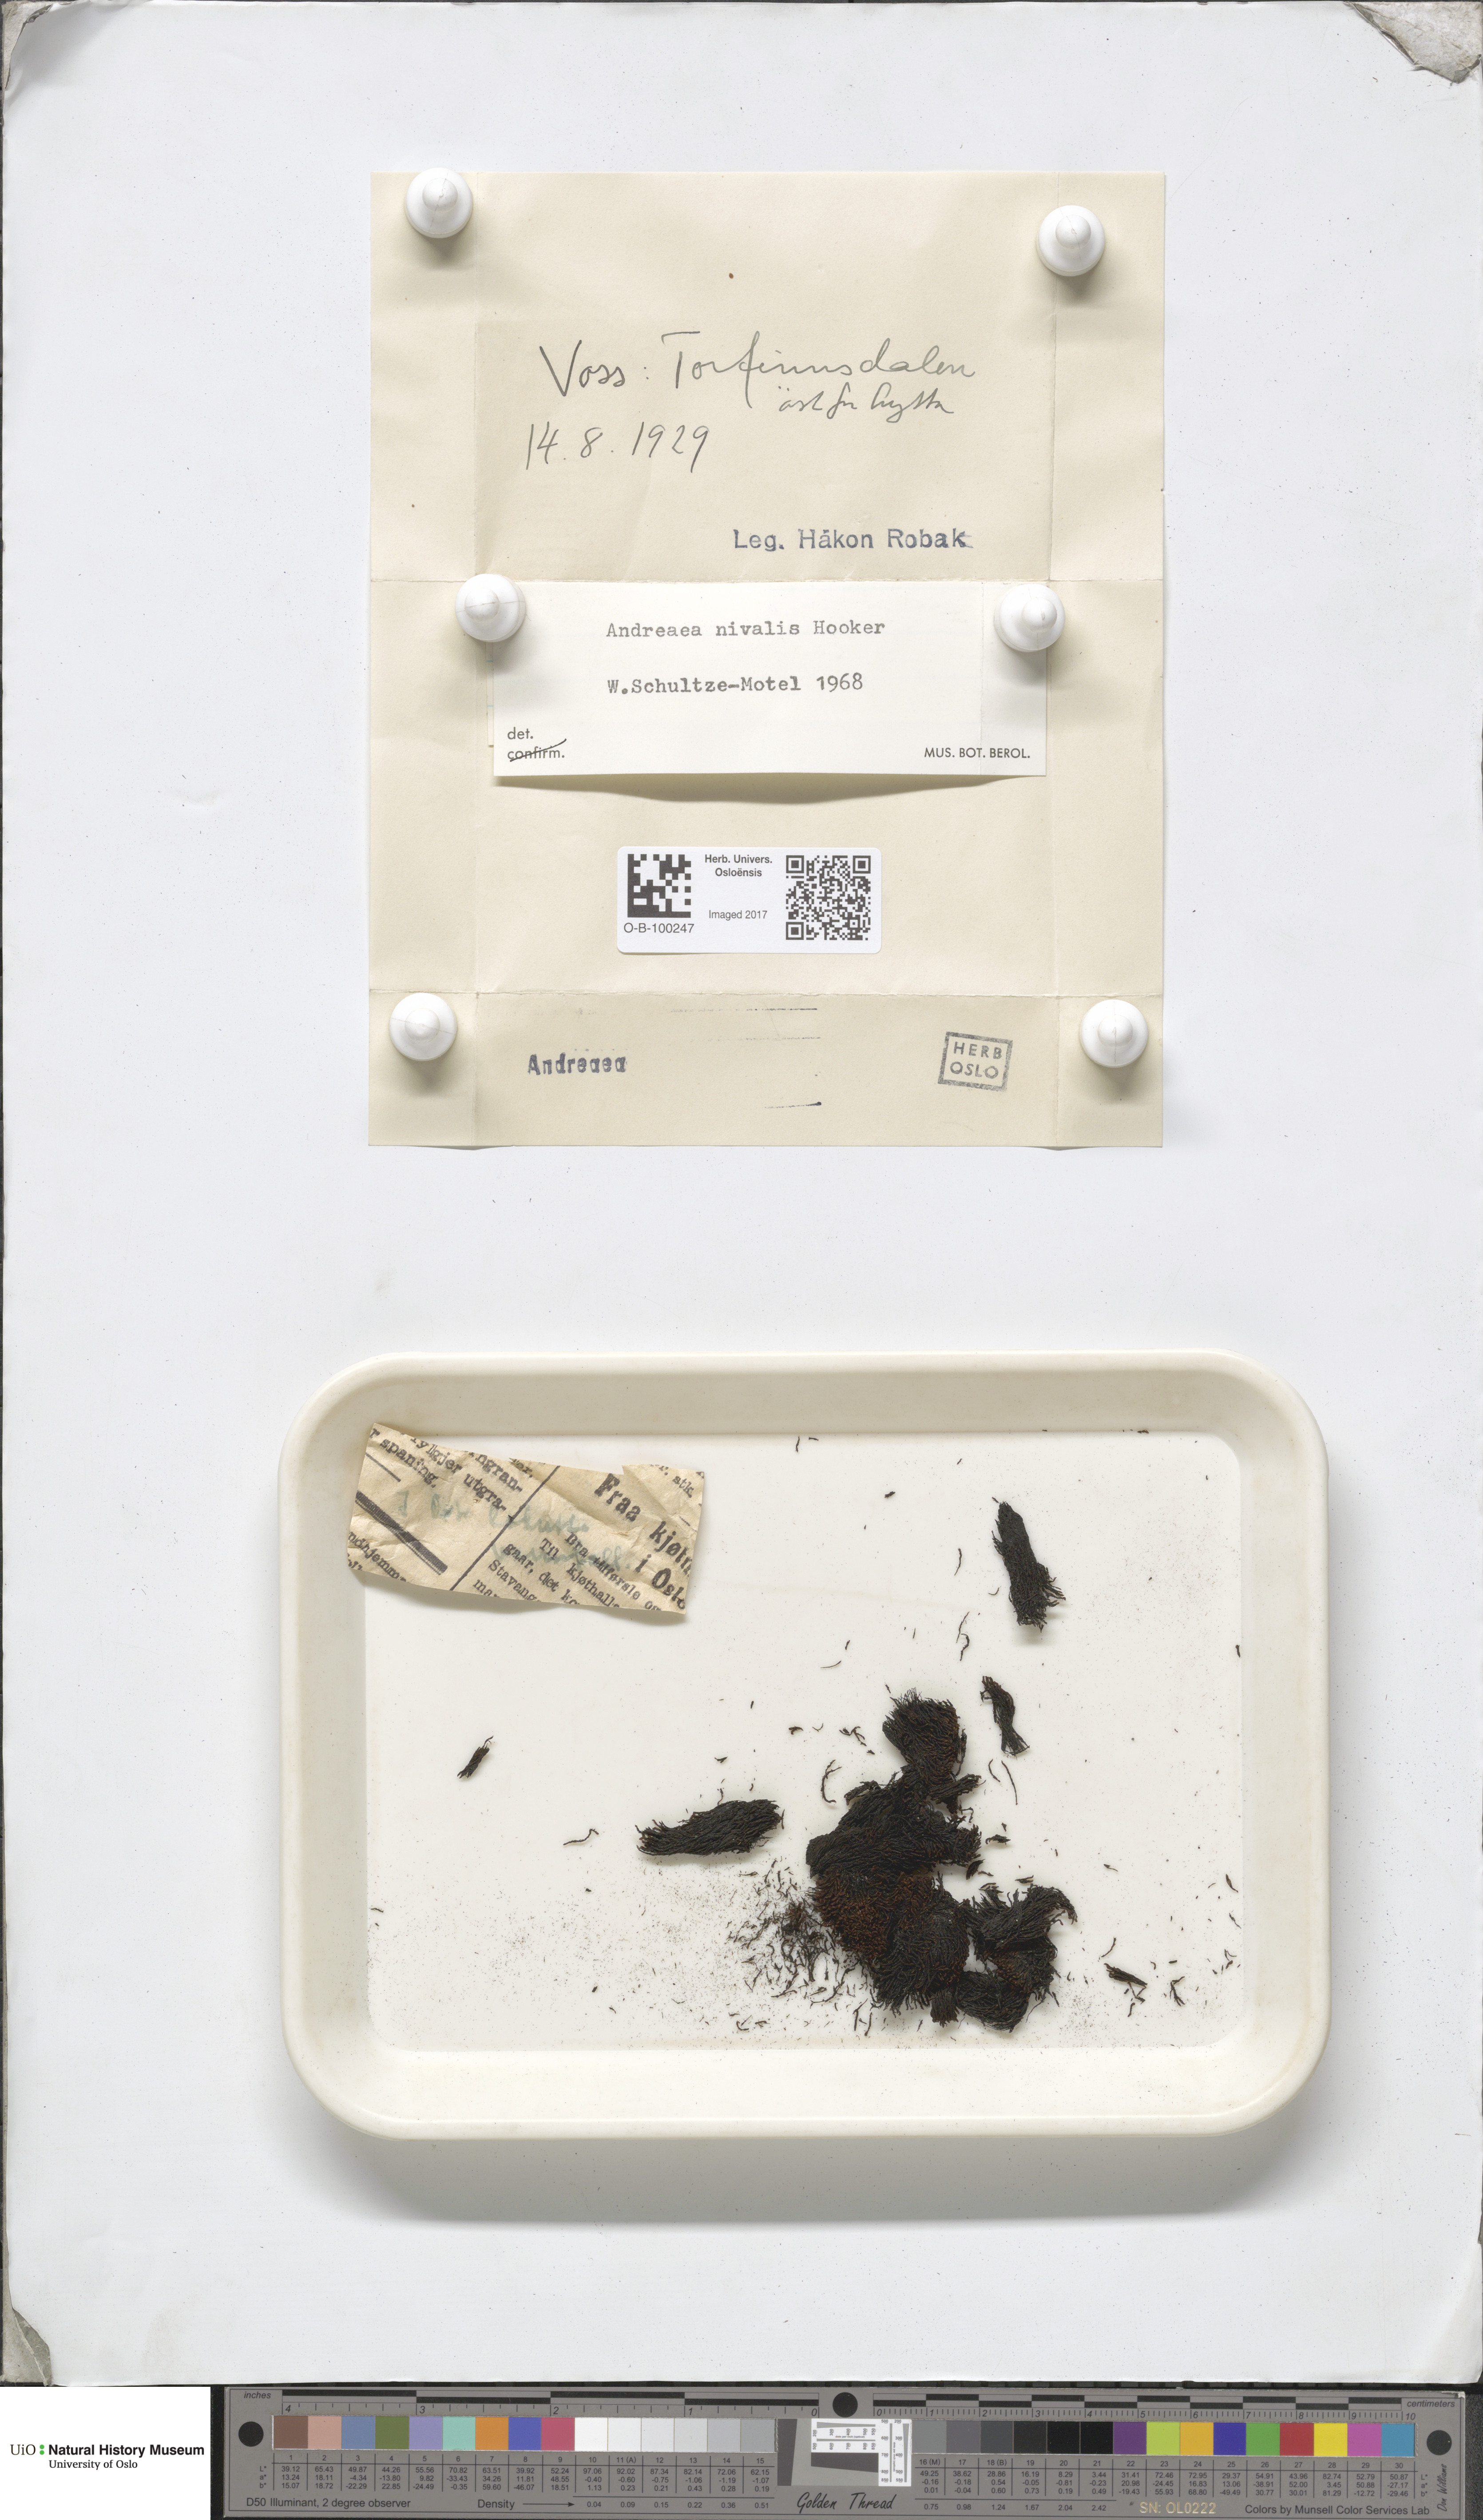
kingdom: Plantae
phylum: Bryophyta
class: Andreaeopsida
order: Andreaeales
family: Andreaeaceae
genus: Andreaea
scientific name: Andreaea nivalis
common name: Snow rock moss
